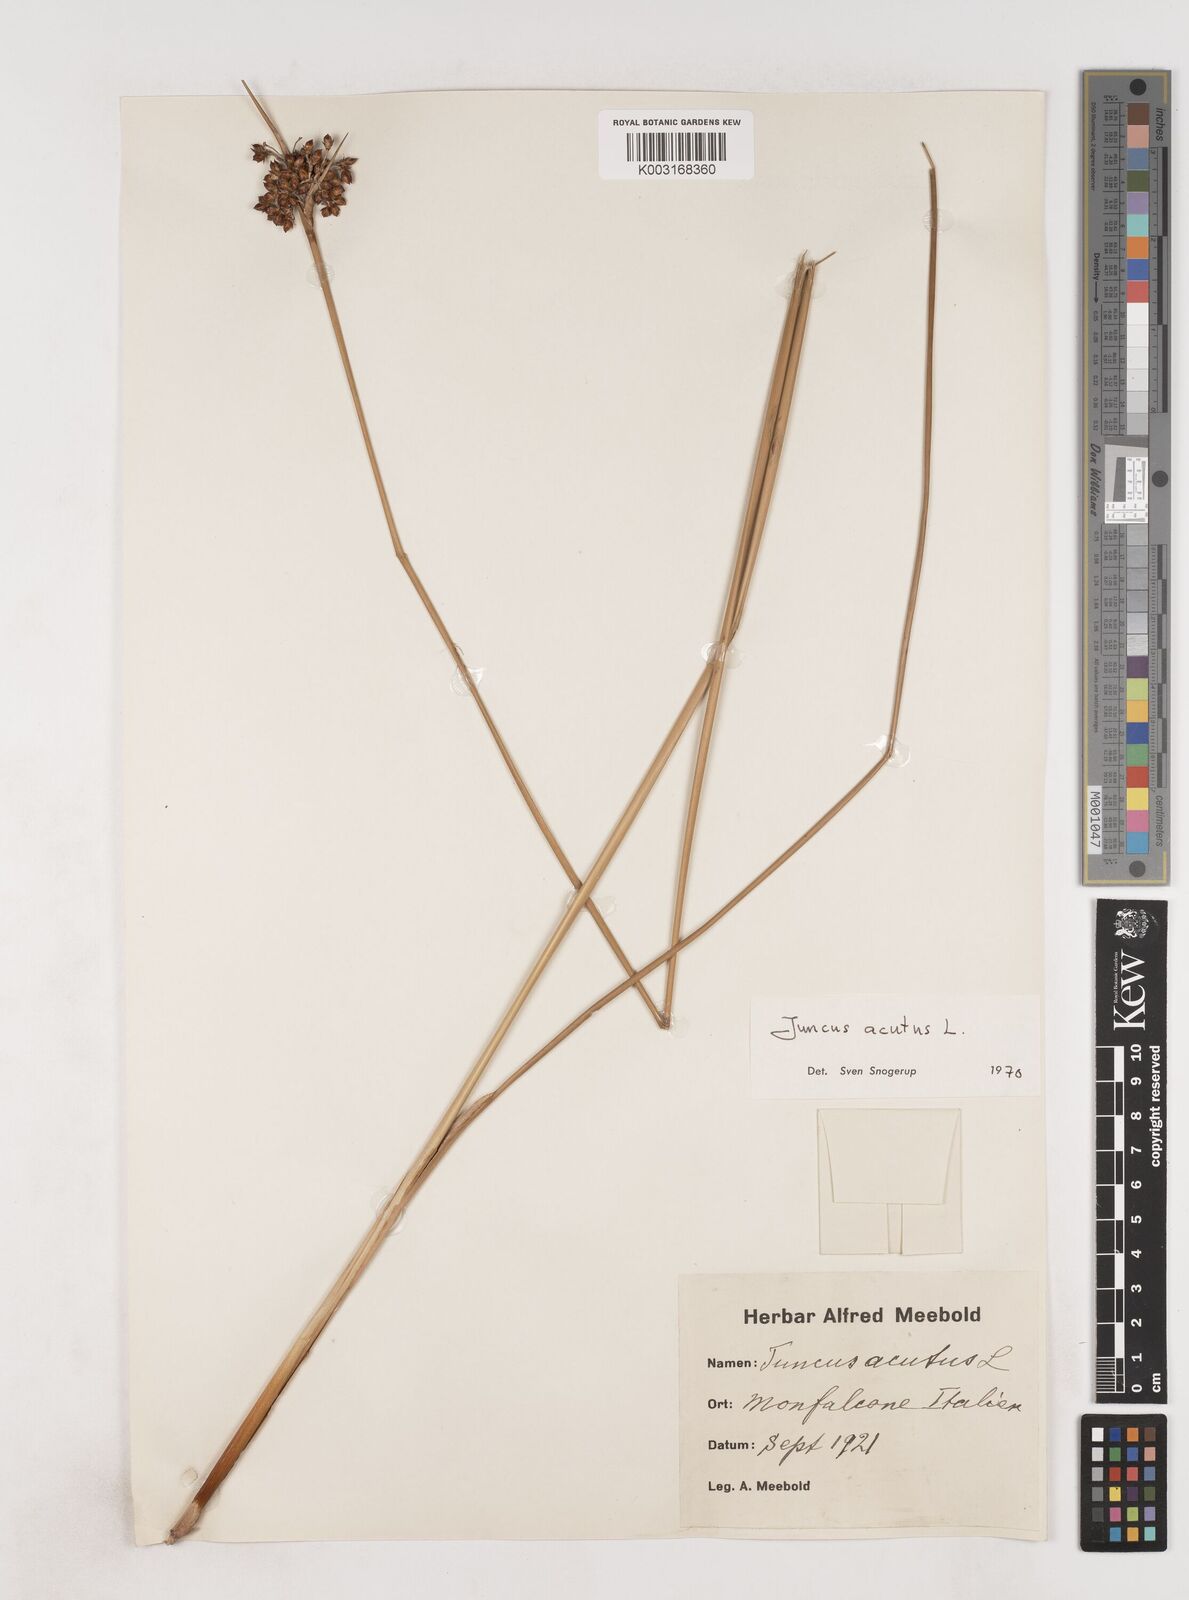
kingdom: Plantae
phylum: Tracheophyta
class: Liliopsida
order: Poales
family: Juncaceae
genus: Juncus
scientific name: Juncus acutus
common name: Sharp rush
